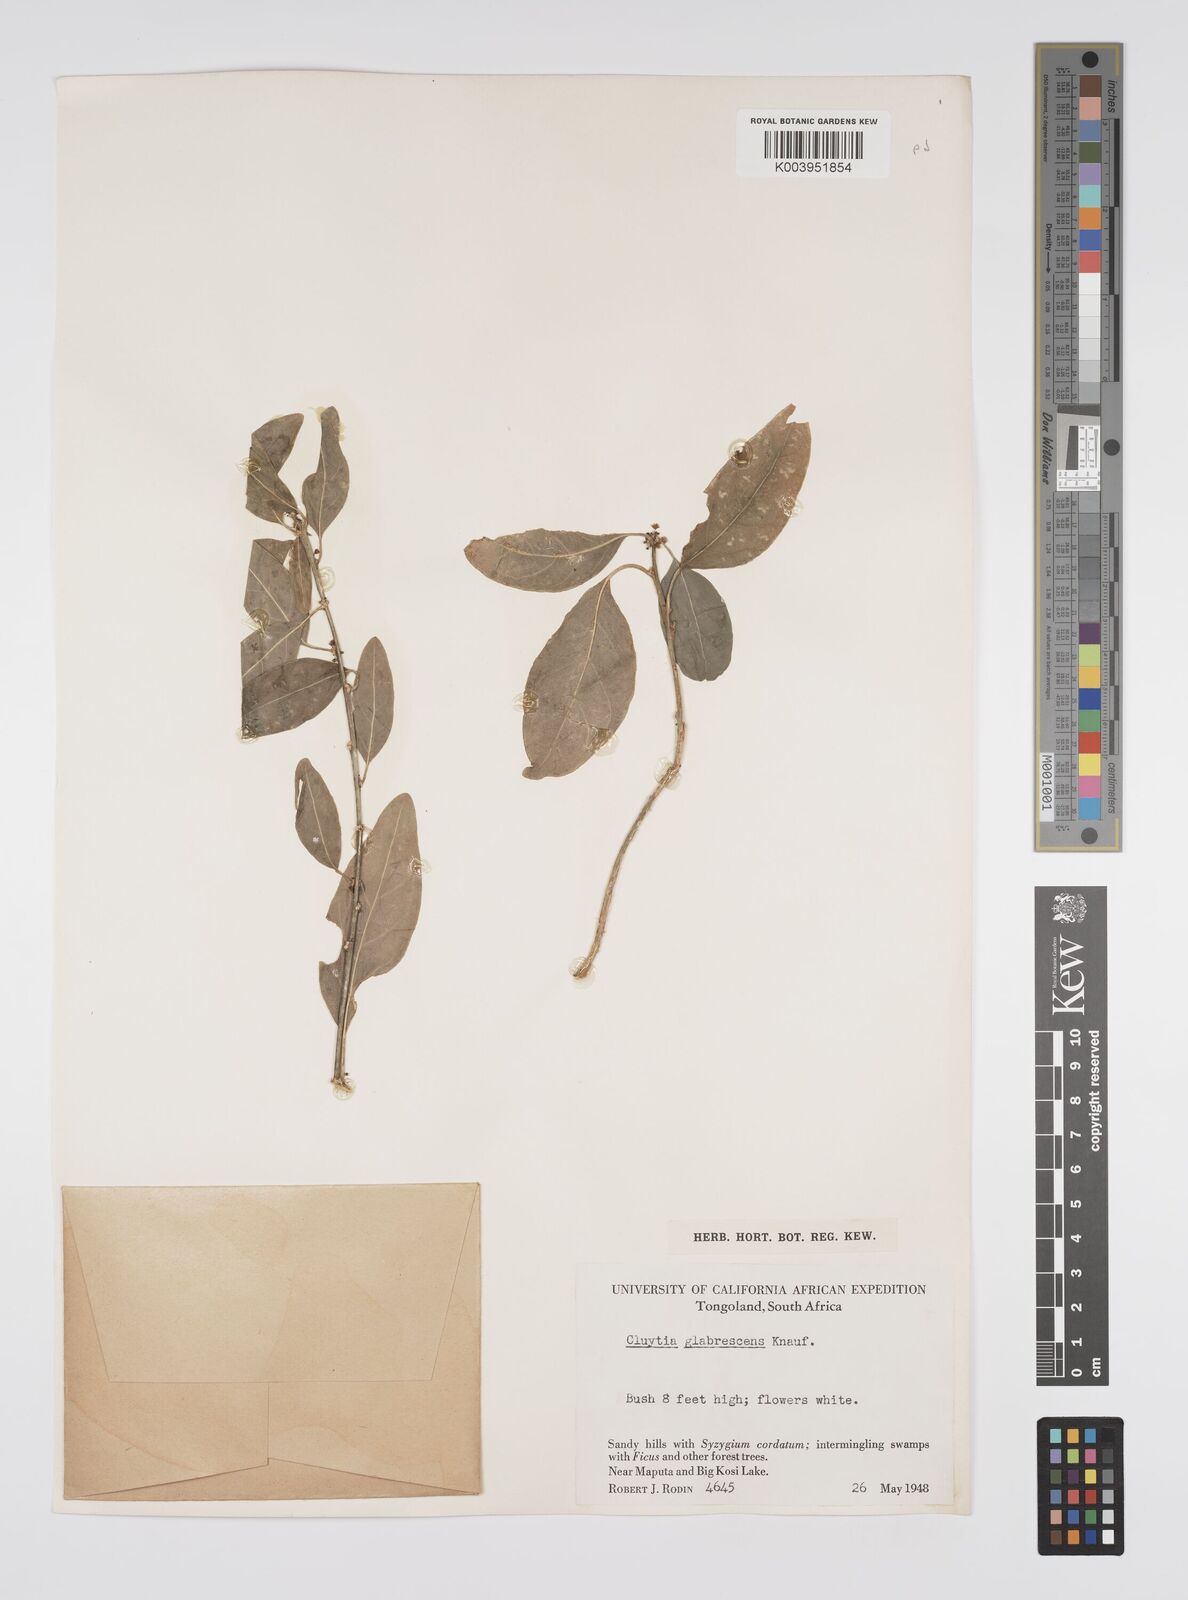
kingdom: Plantae
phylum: Tracheophyta
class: Magnoliopsida
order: Malpighiales
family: Peraceae
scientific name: Peraceae
